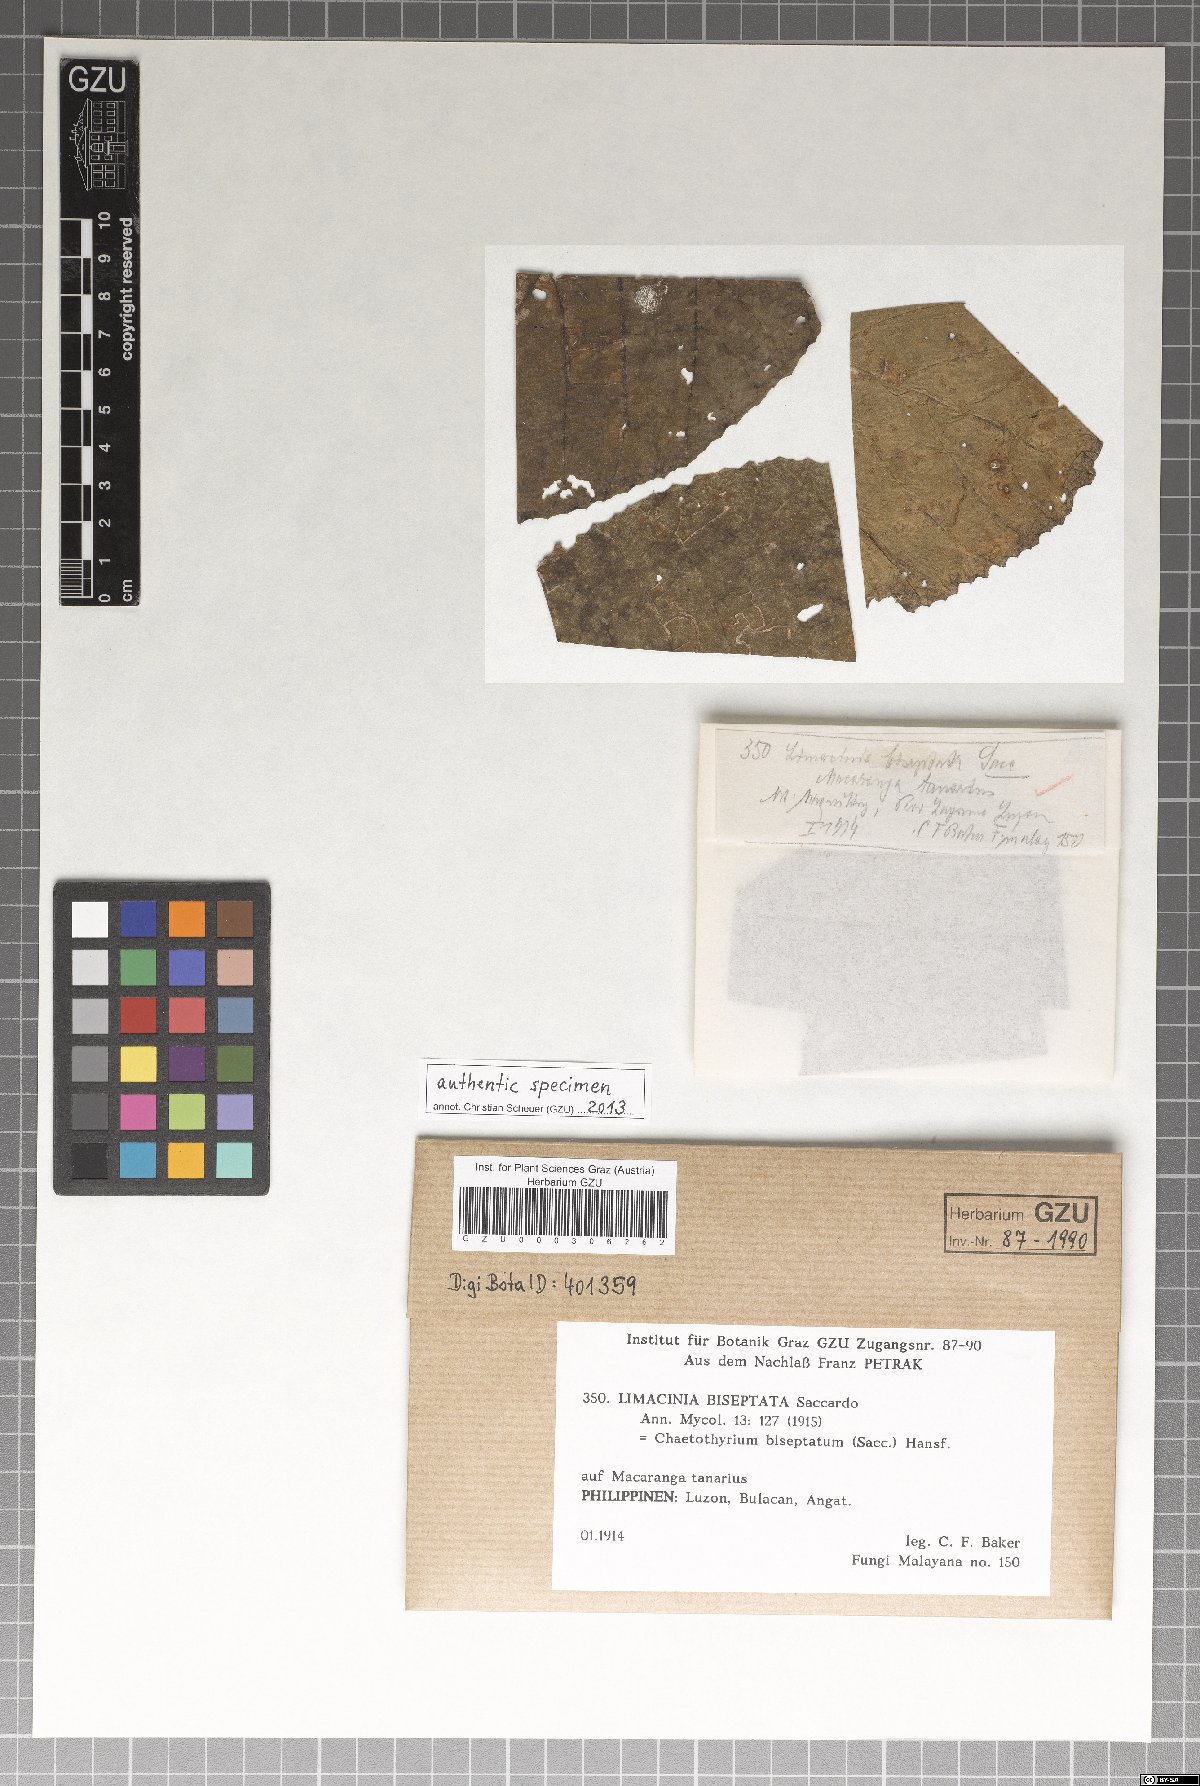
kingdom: Fungi
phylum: Ascomycota
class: Eurotiomycetes
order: Chaetothyriales
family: Chaetothyriaceae
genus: Ceramothyrium
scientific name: Ceramothyrium biseptatum
